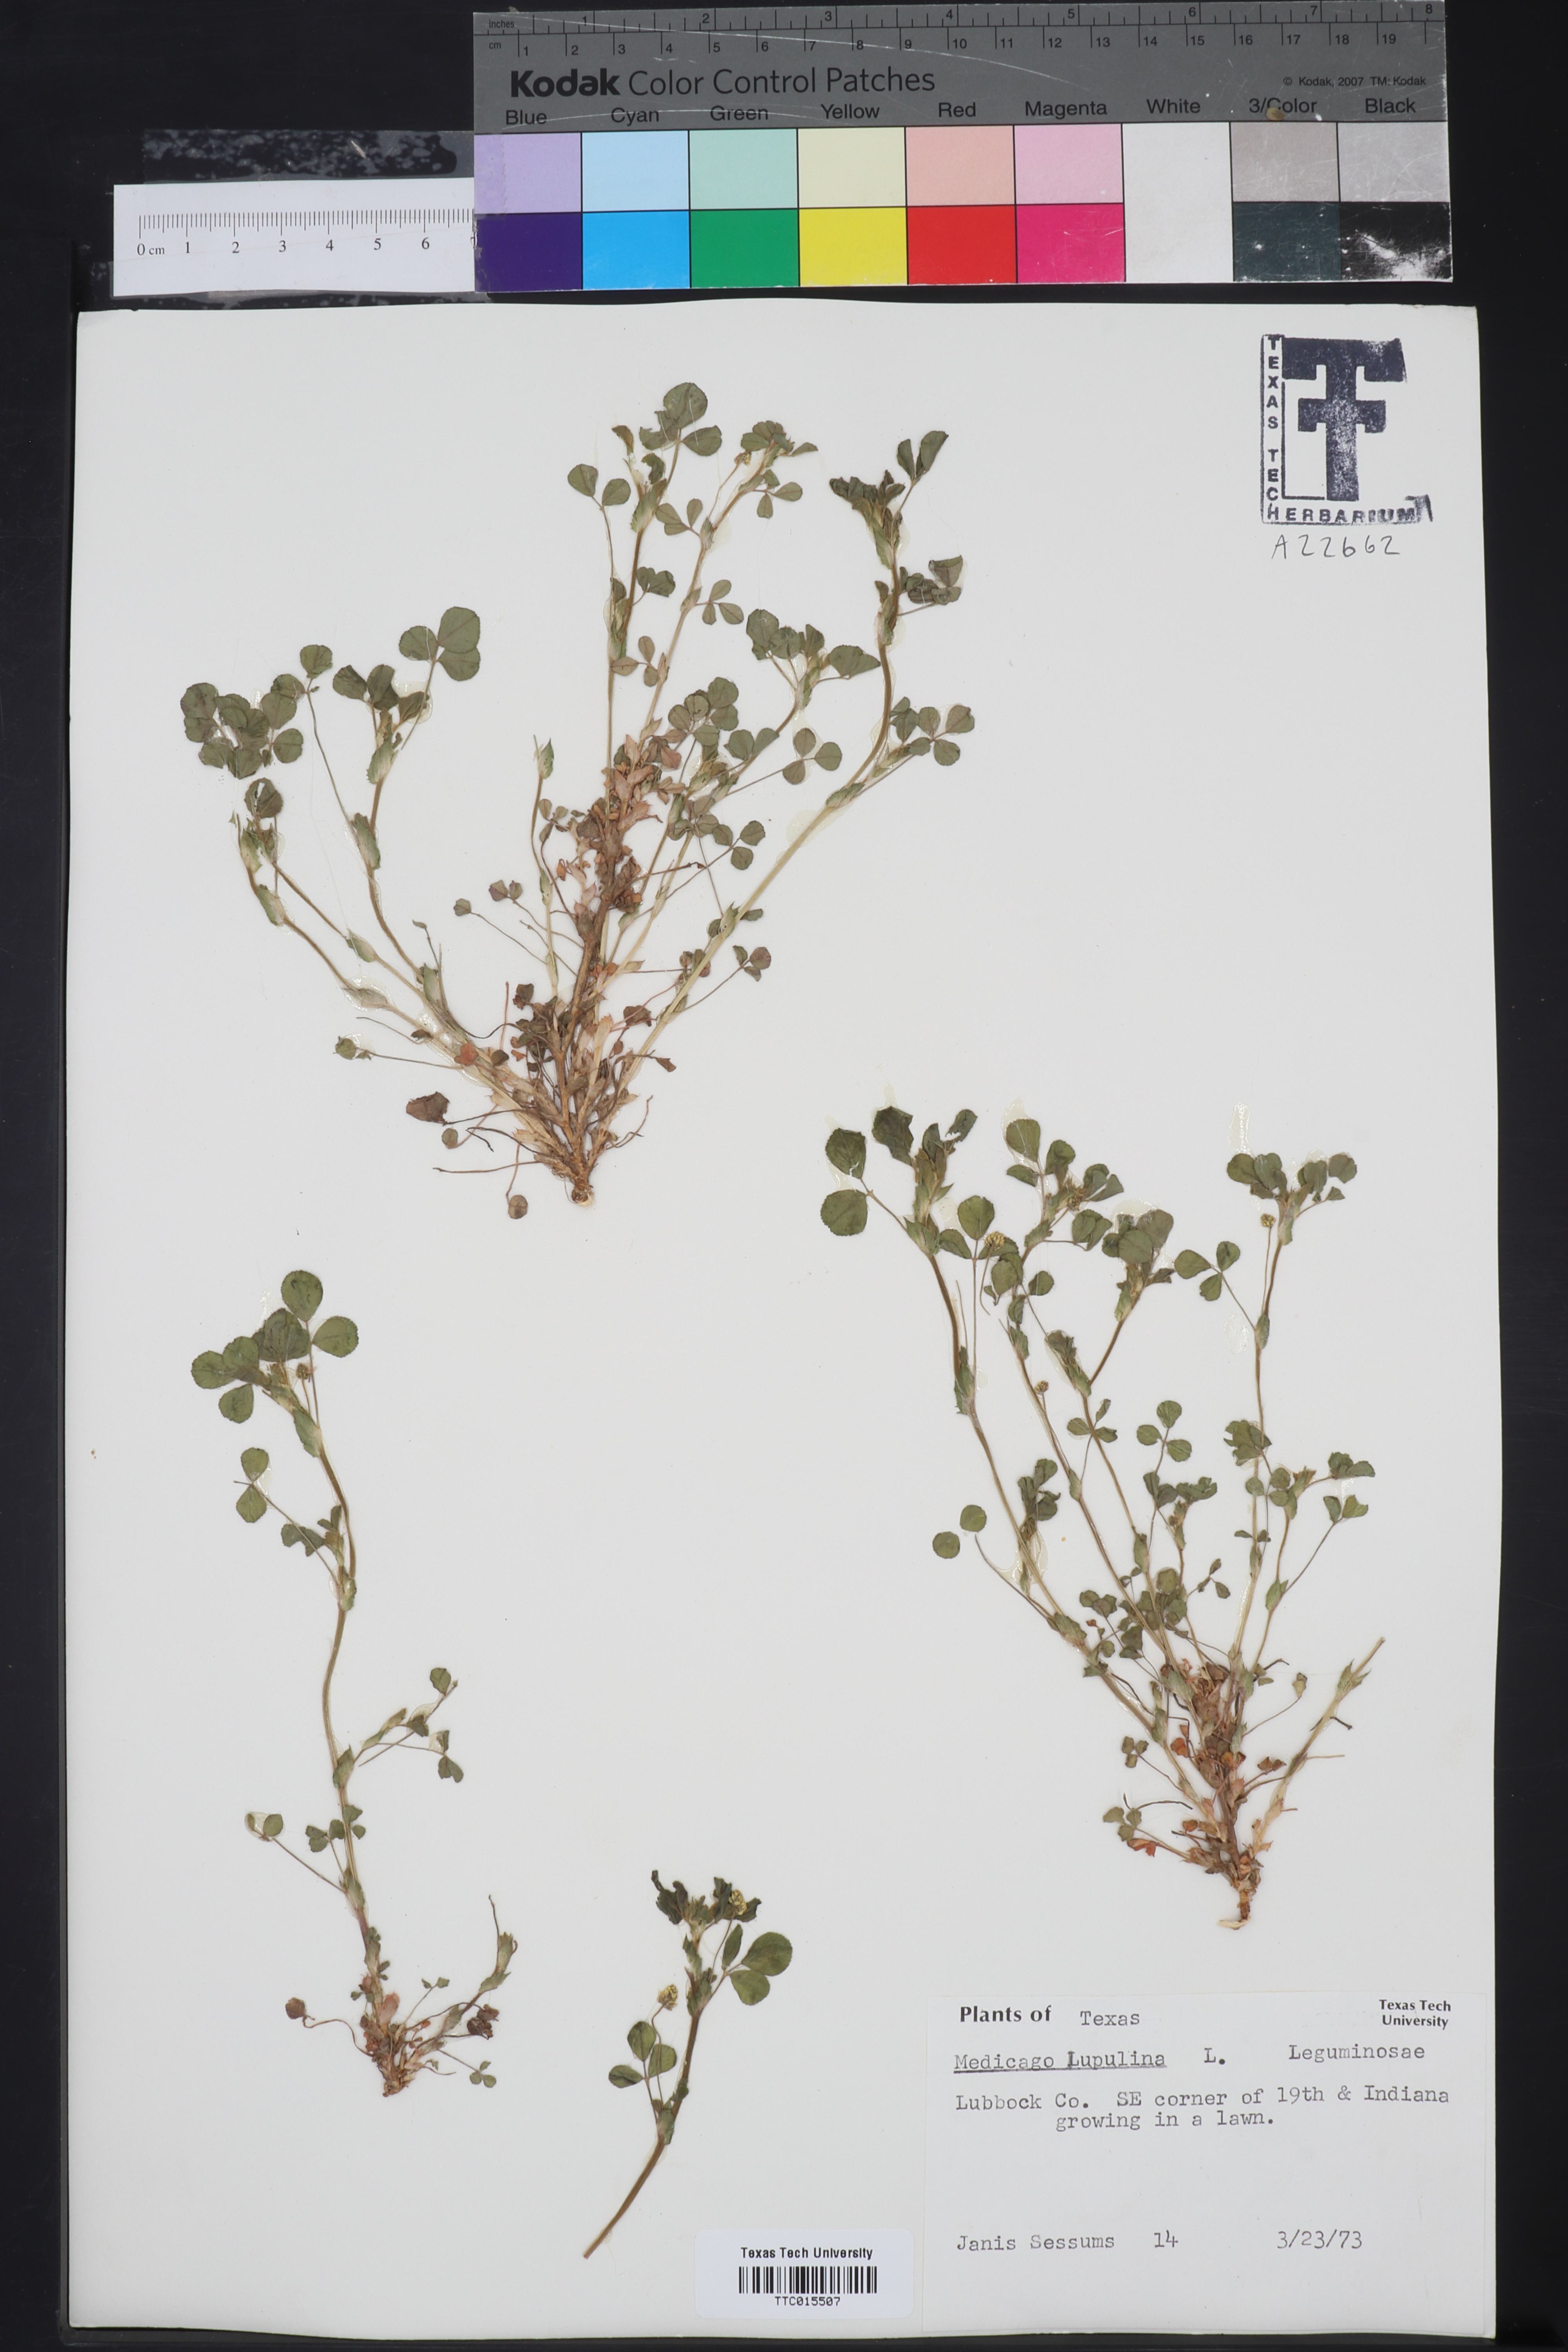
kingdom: Plantae
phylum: Tracheophyta
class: Magnoliopsida
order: Fabales
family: Fabaceae
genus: Medicago
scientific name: Medicago lupulina
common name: Black medick
